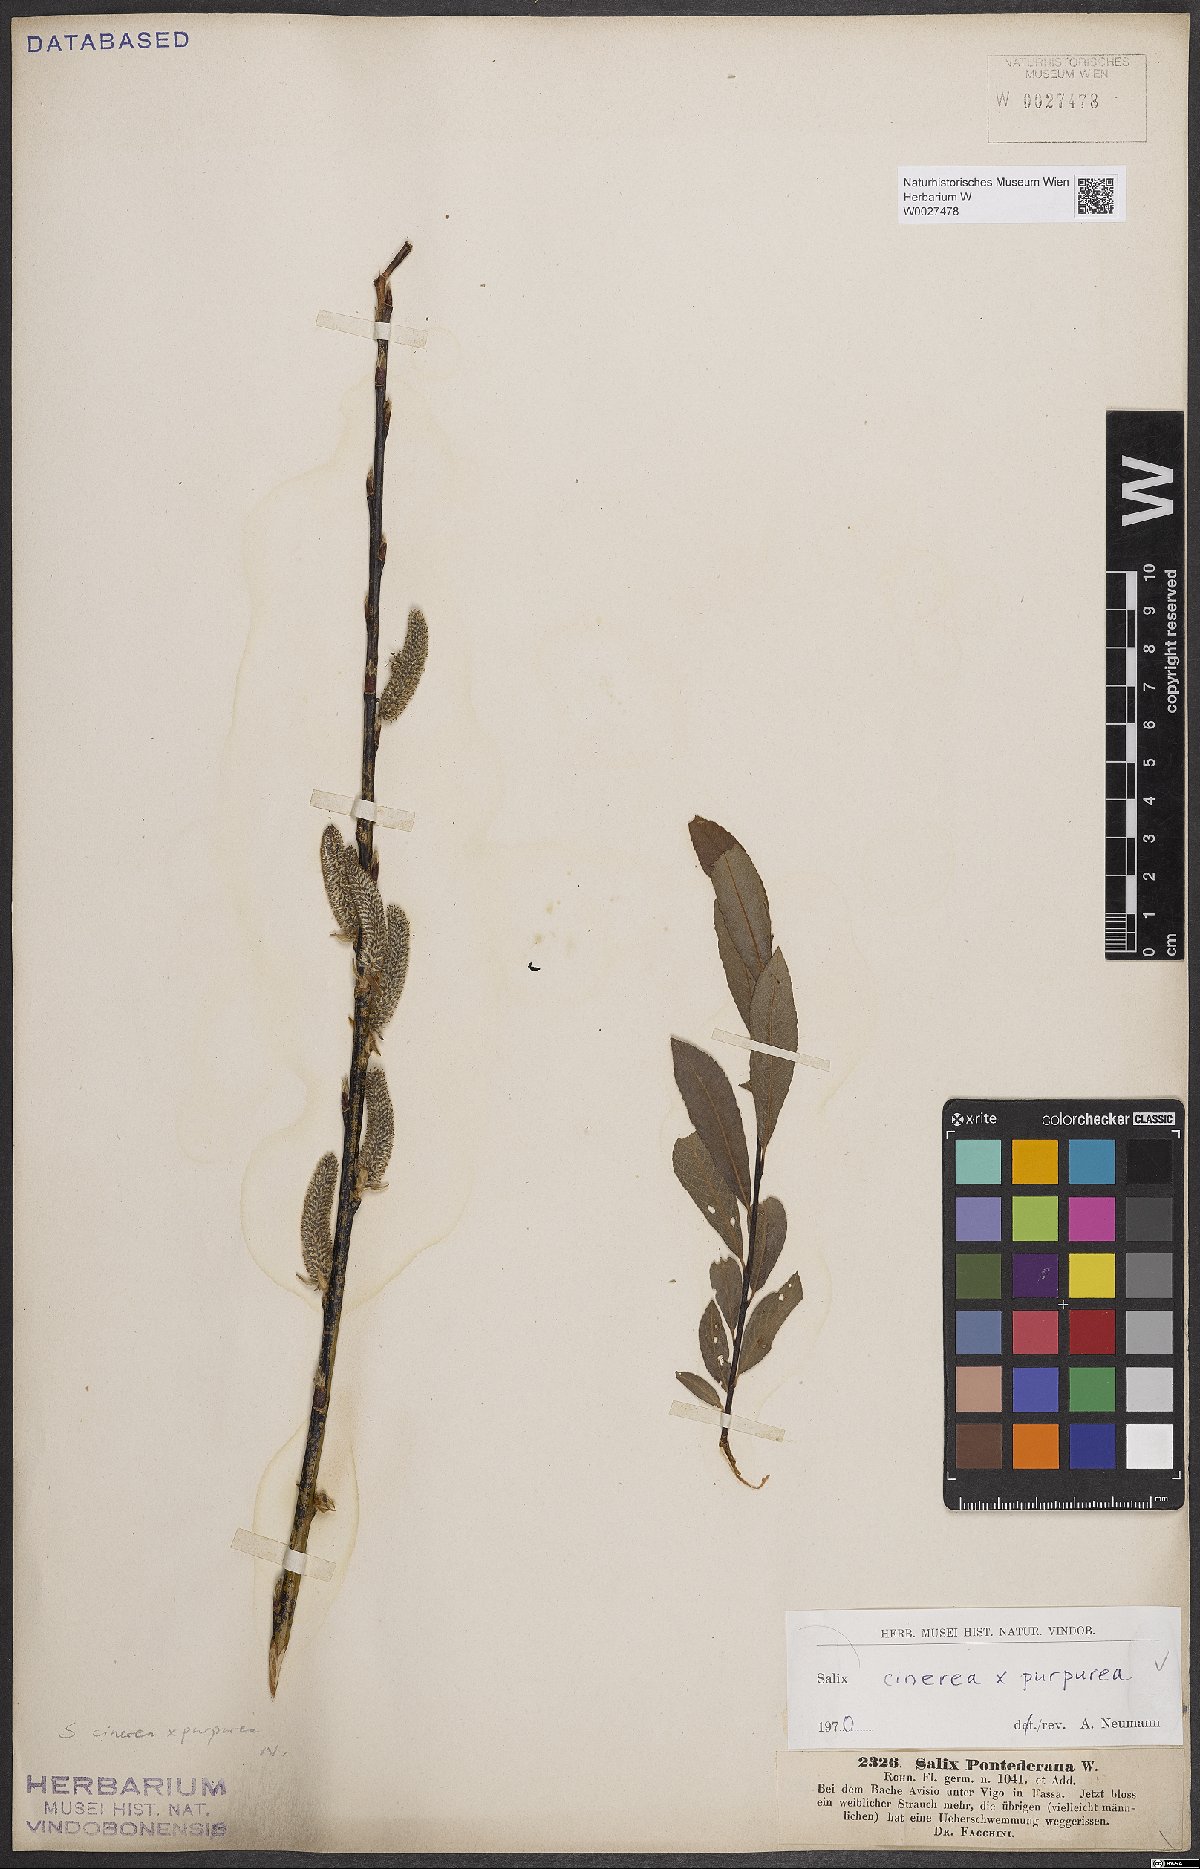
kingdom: Plantae
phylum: Tracheophyta
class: Magnoliopsida
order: Malpighiales
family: Salicaceae
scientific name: Salicaceae
